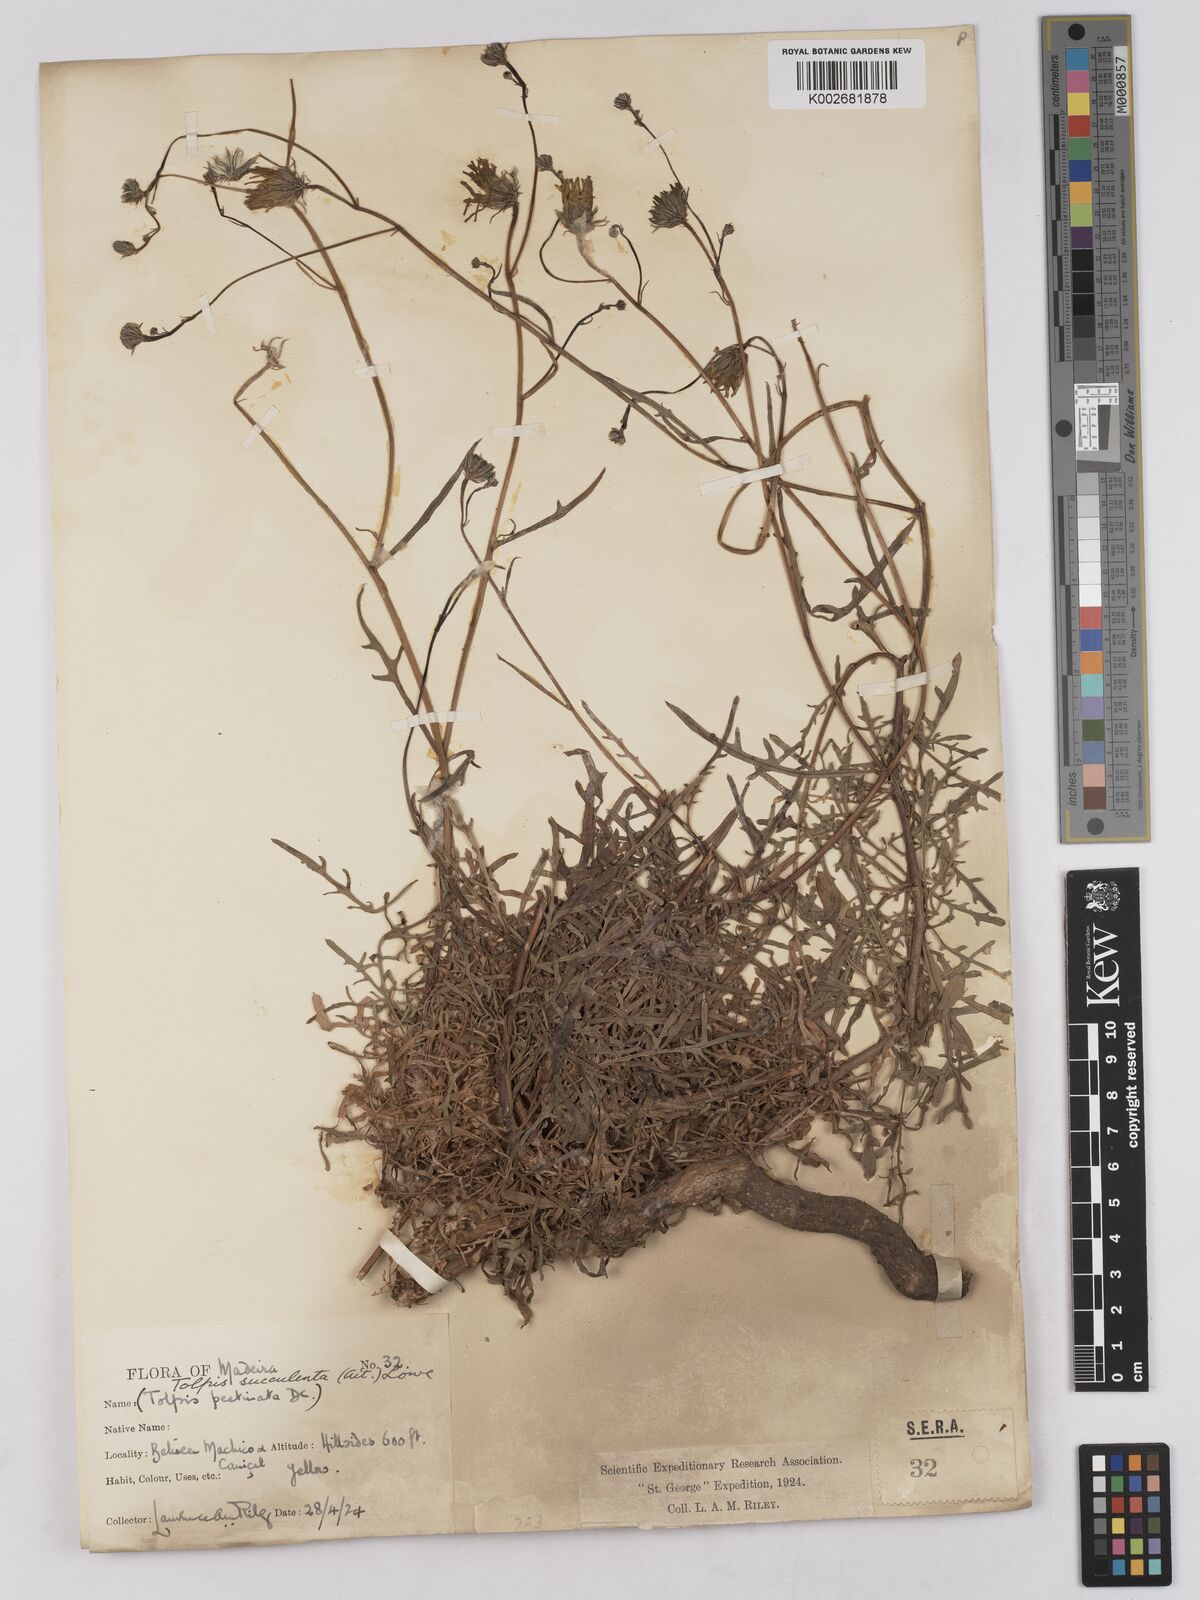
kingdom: Plantae
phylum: Tracheophyta
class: Magnoliopsida
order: Asterales
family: Asteraceae
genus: Tolpis
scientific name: Tolpis
